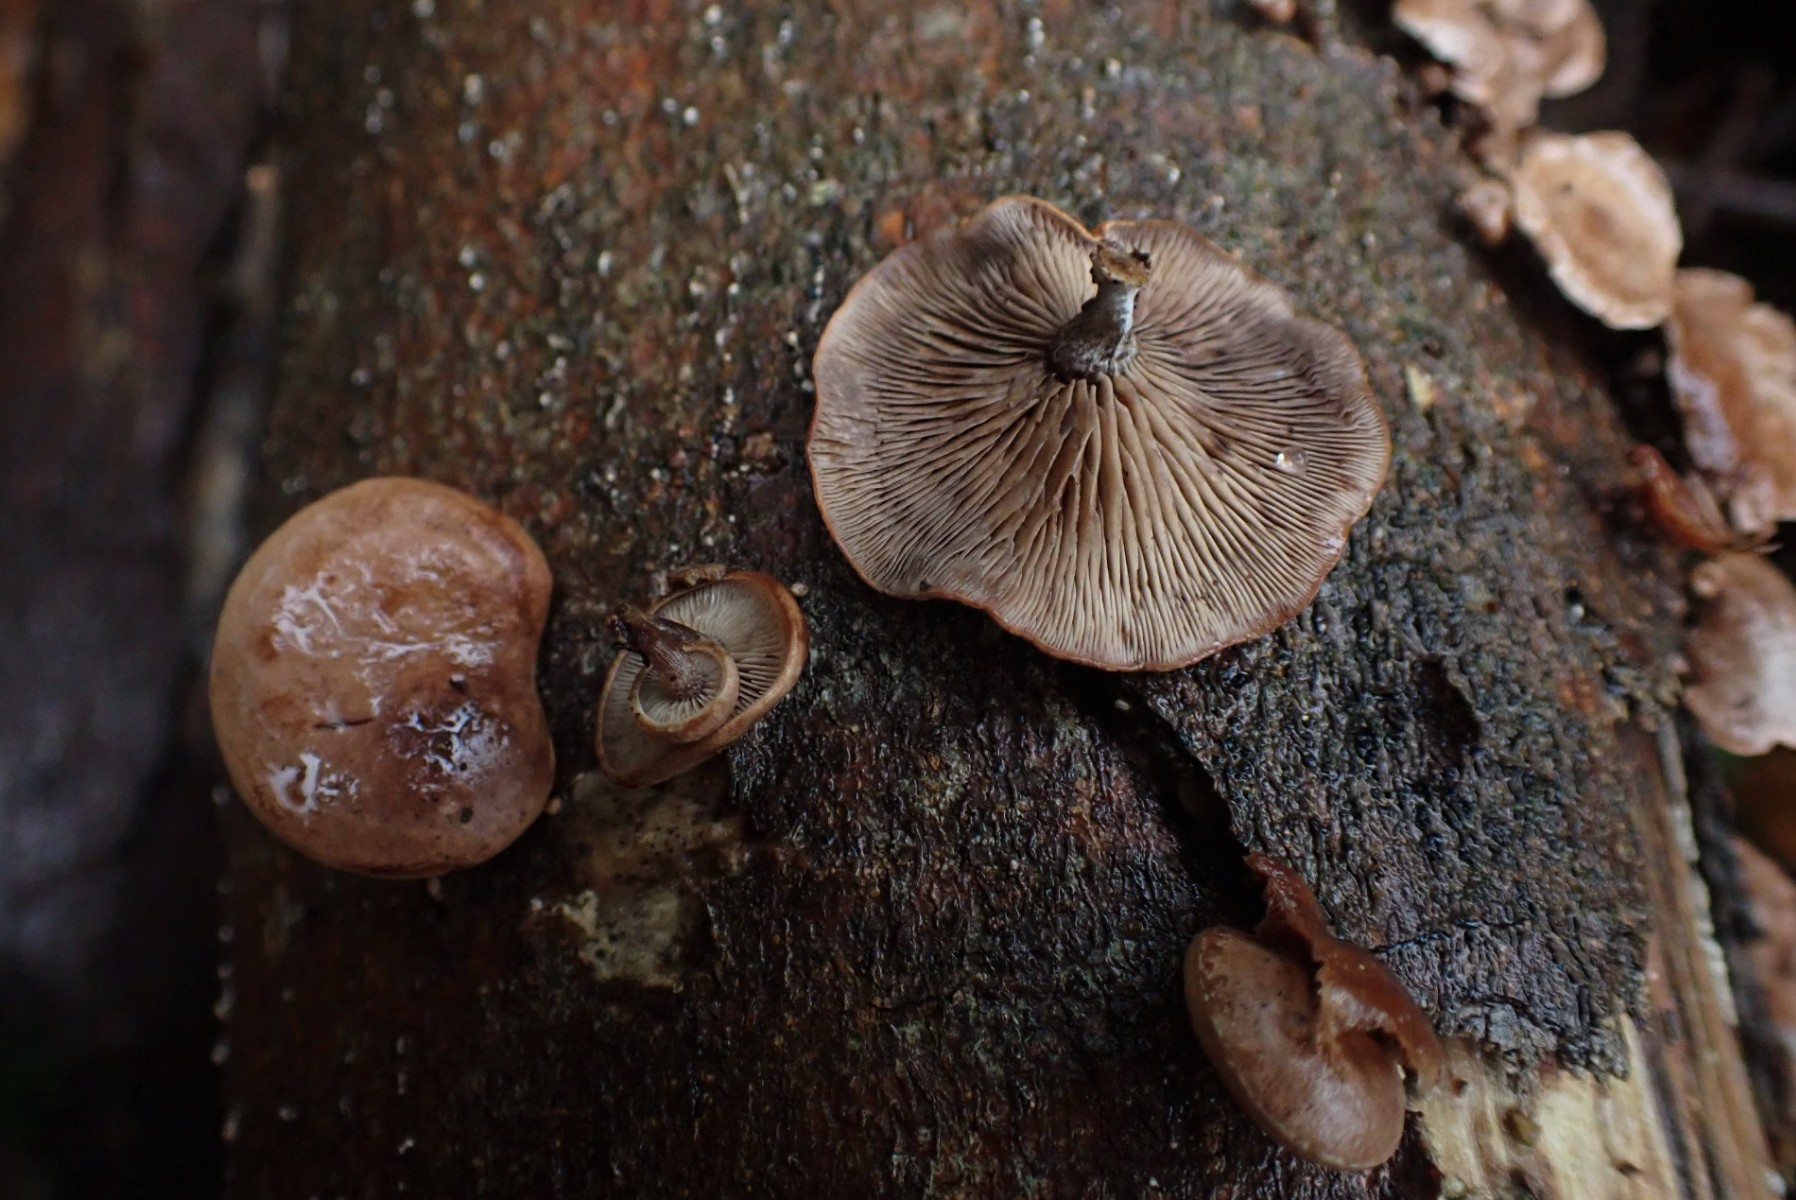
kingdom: Fungi
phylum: Basidiomycota
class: Agaricomycetes
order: Agaricales
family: Strophariaceae
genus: Deconica
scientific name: Deconica horizontalis
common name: ved-stråhat
